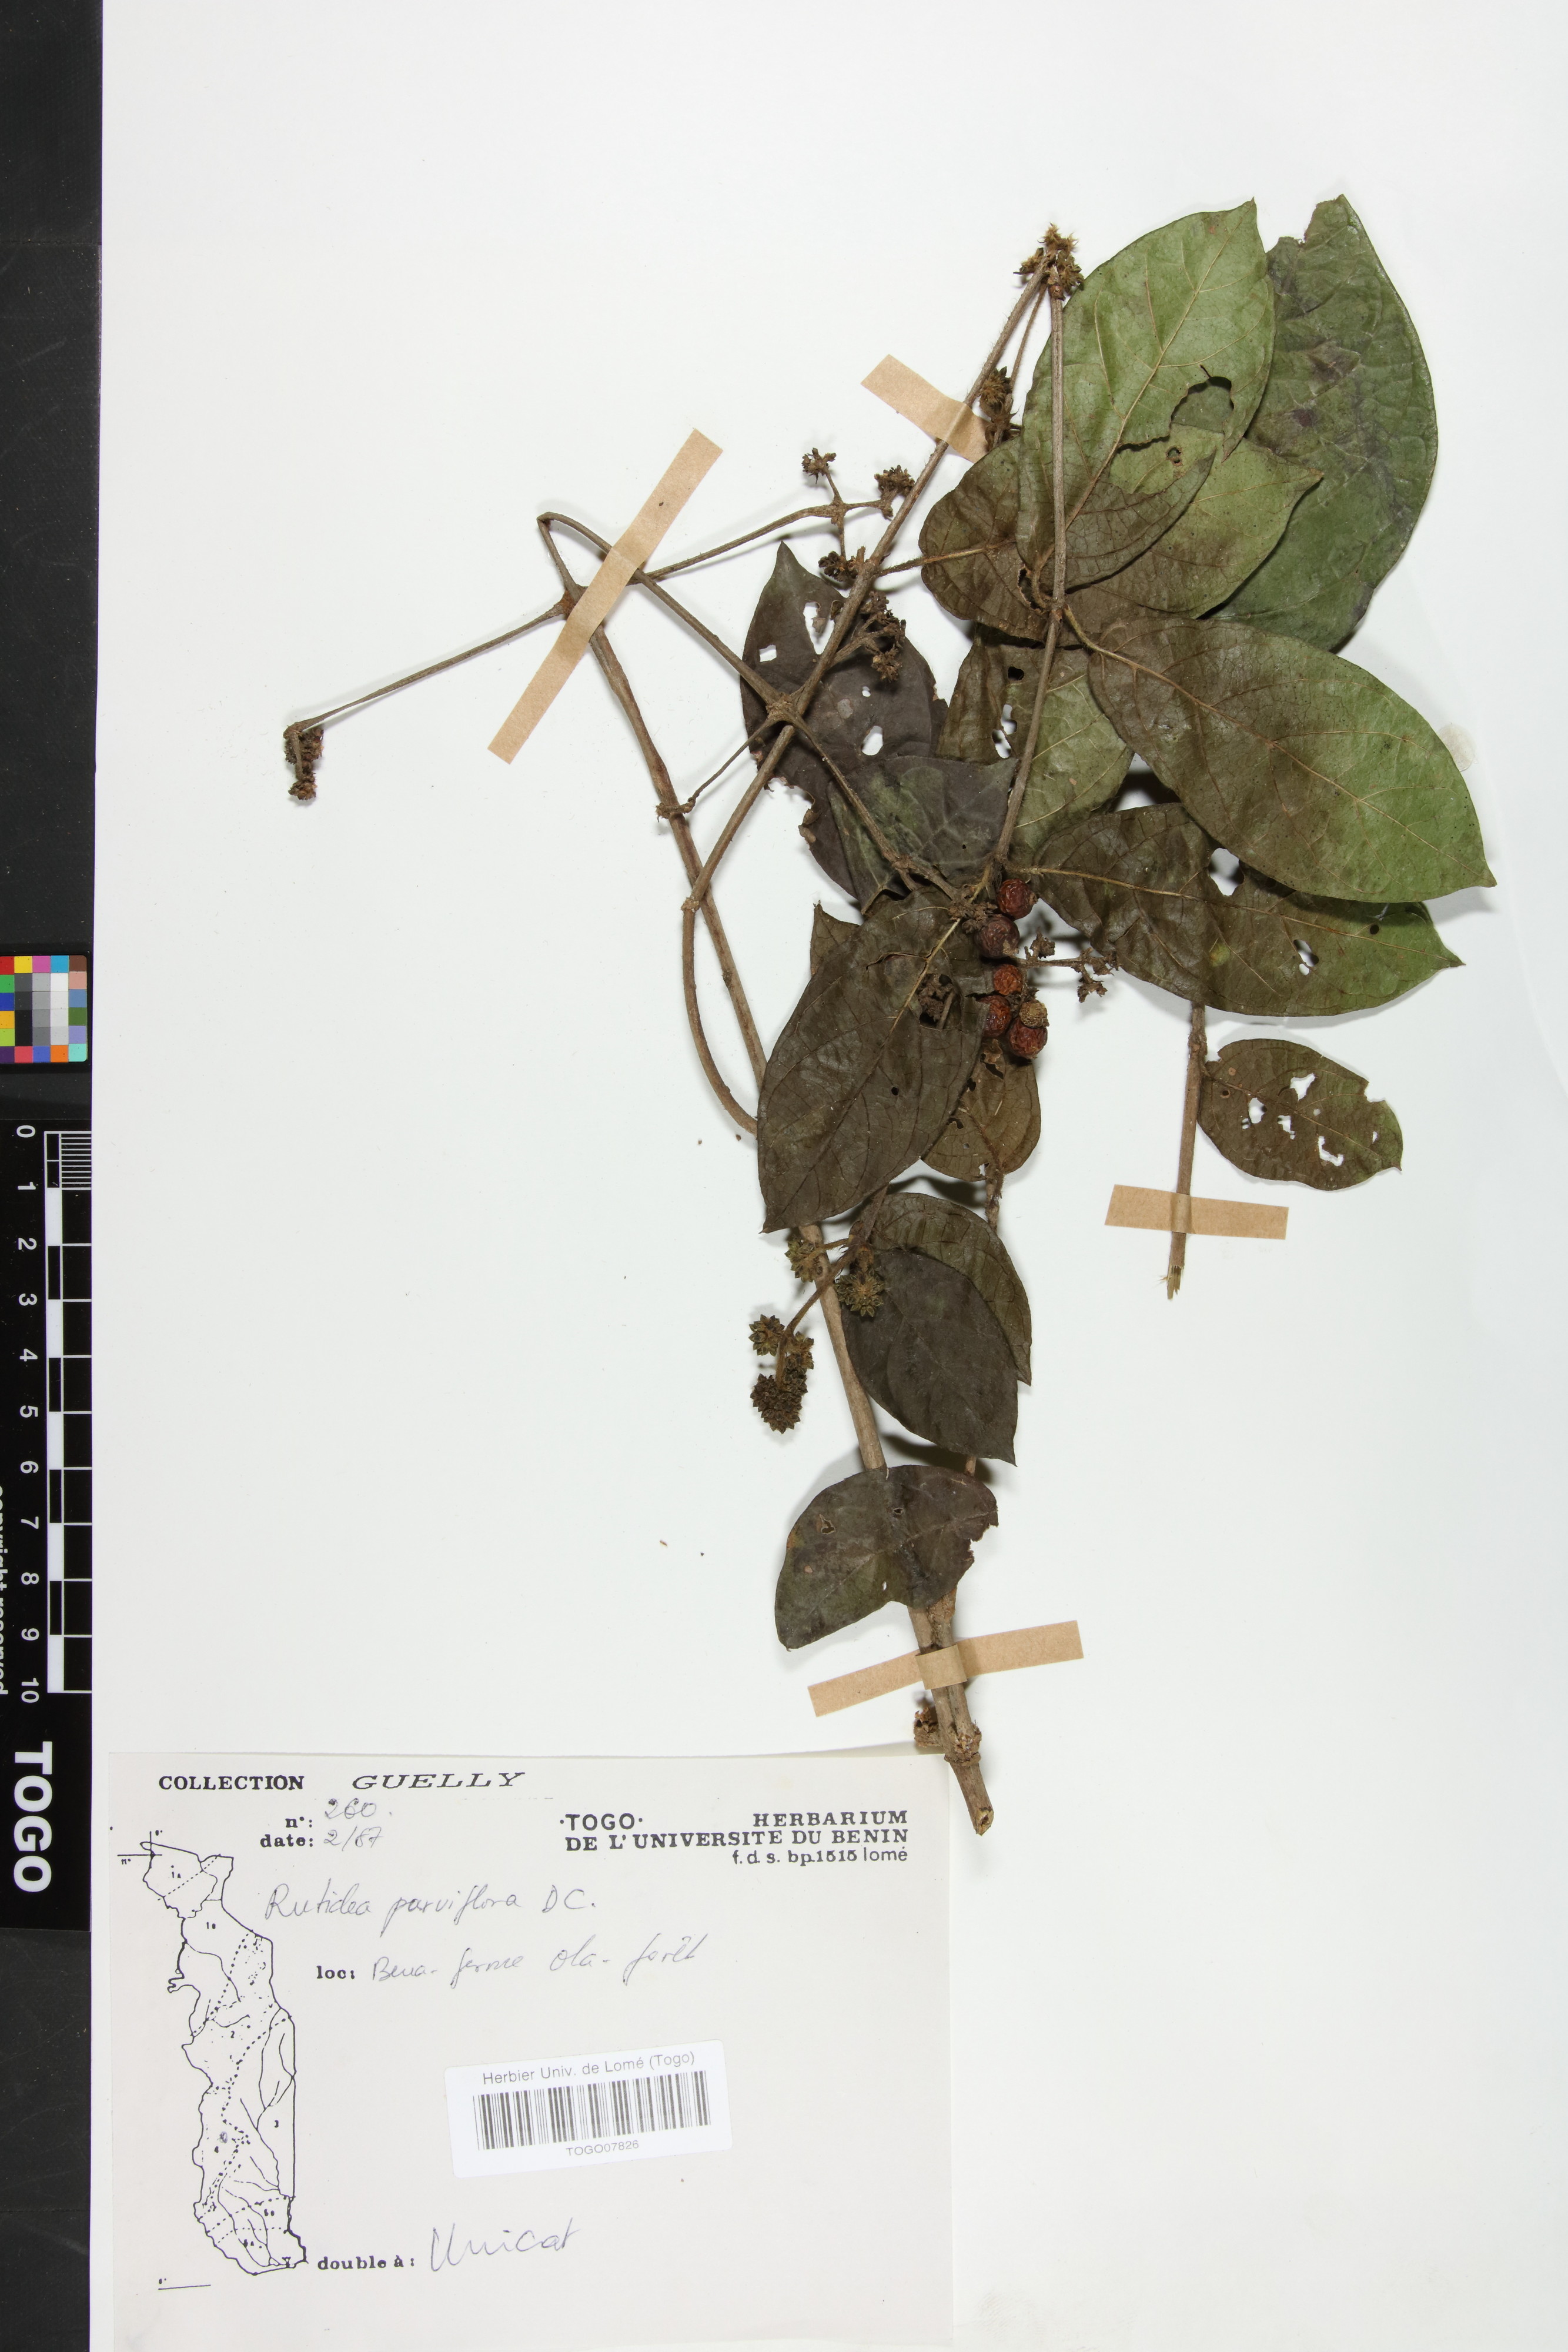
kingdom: Plantae
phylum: Tracheophyta
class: Magnoliopsida
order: Gentianales
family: Rubiaceae
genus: Rutidea
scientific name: Rutidea parviflora
